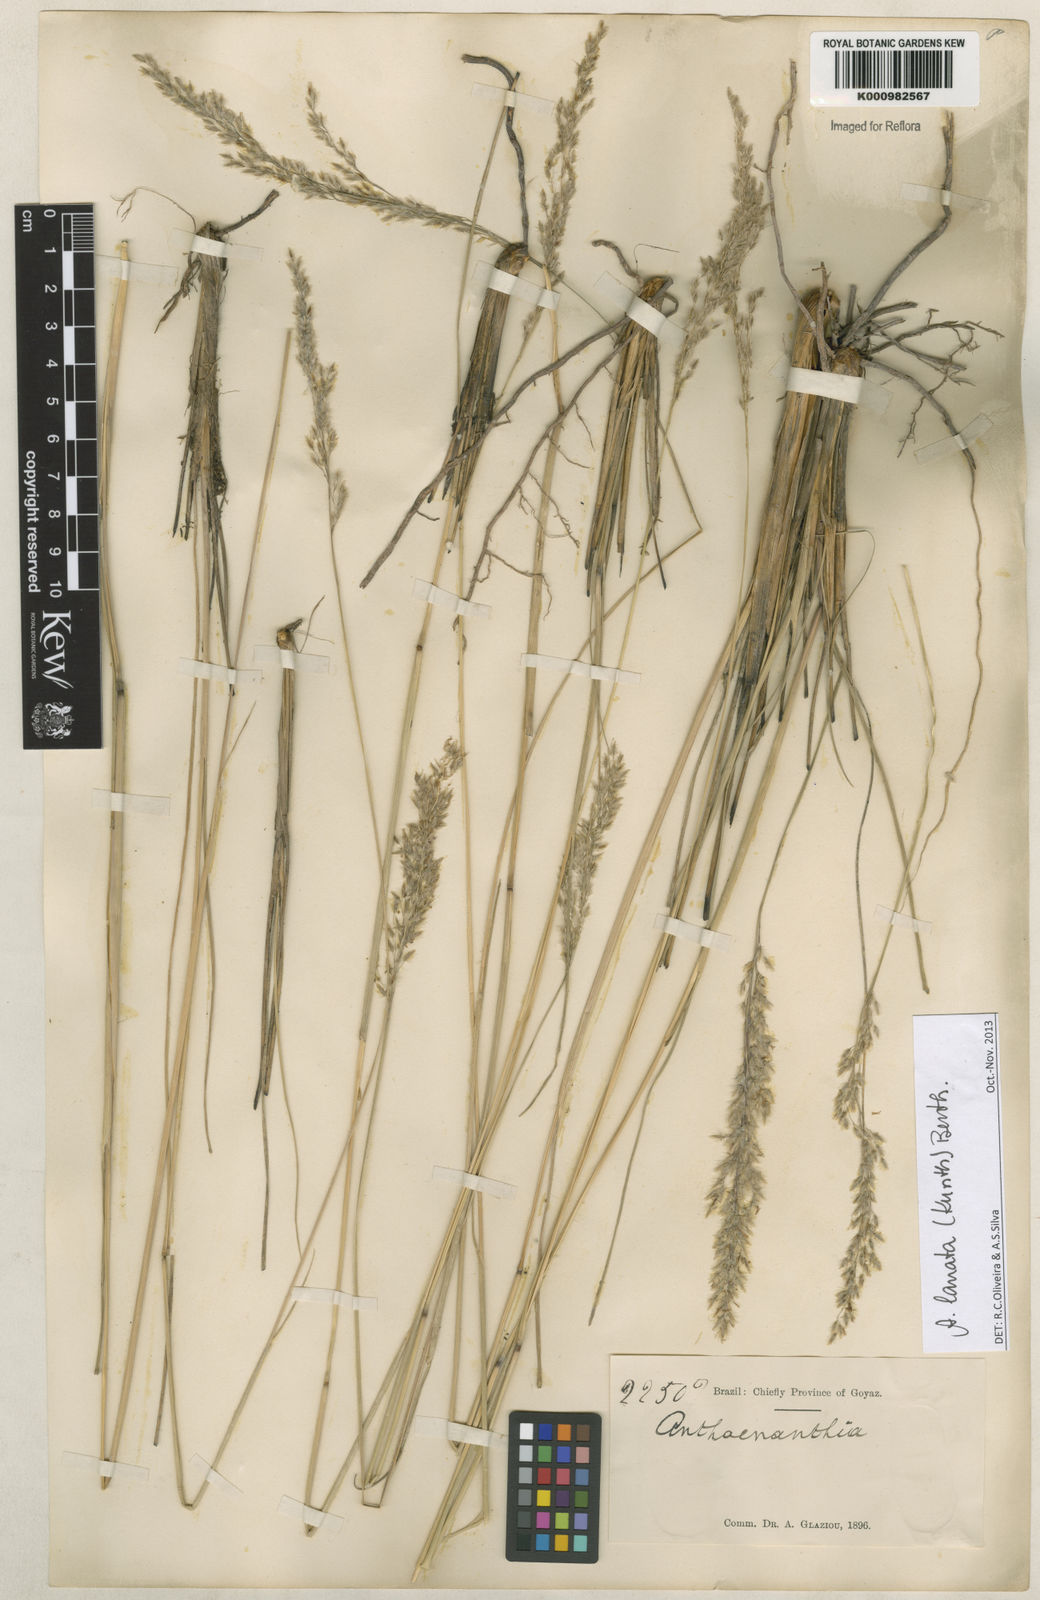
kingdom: Plantae
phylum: Tracheophyta
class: Liliopsida
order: Poales
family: Poaceae
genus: Anthenantia
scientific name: Anthenantia lanata
